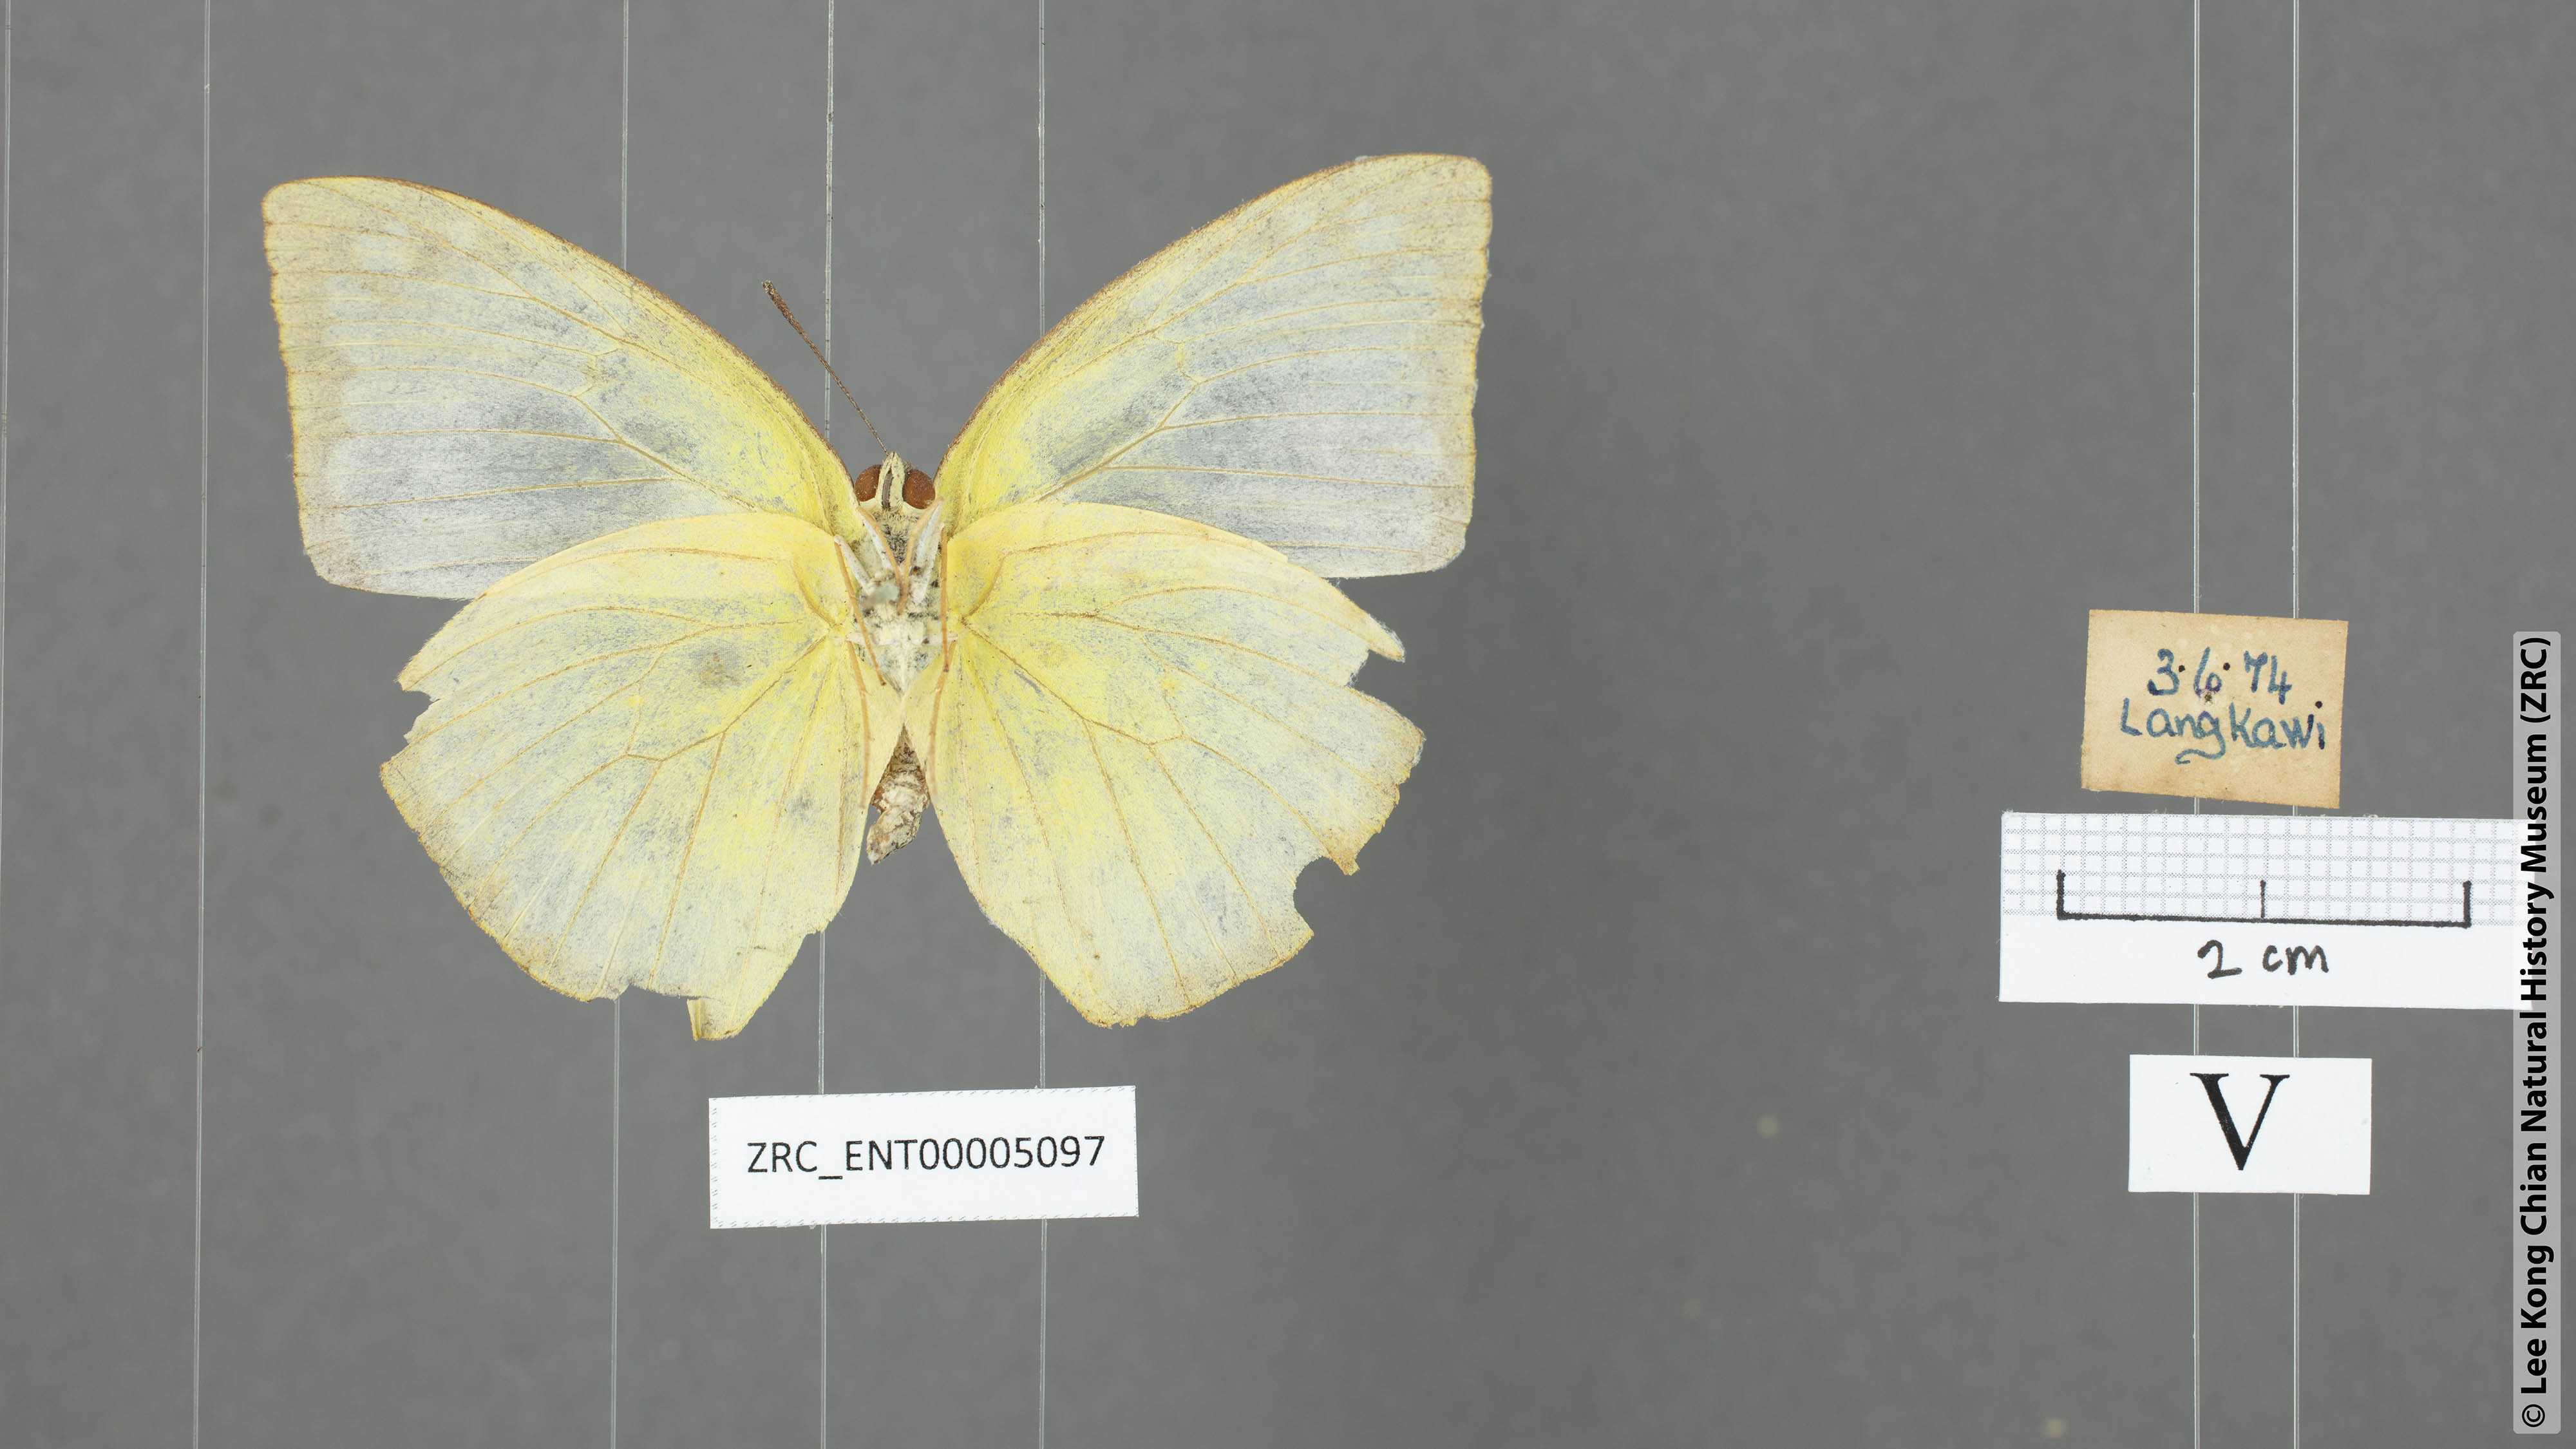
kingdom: Animalia
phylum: Arthropoda
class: Insecta
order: Lepidoptera
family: Pieridae
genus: Catopsilia
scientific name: Catopsilia pomona
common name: Common emigrant
